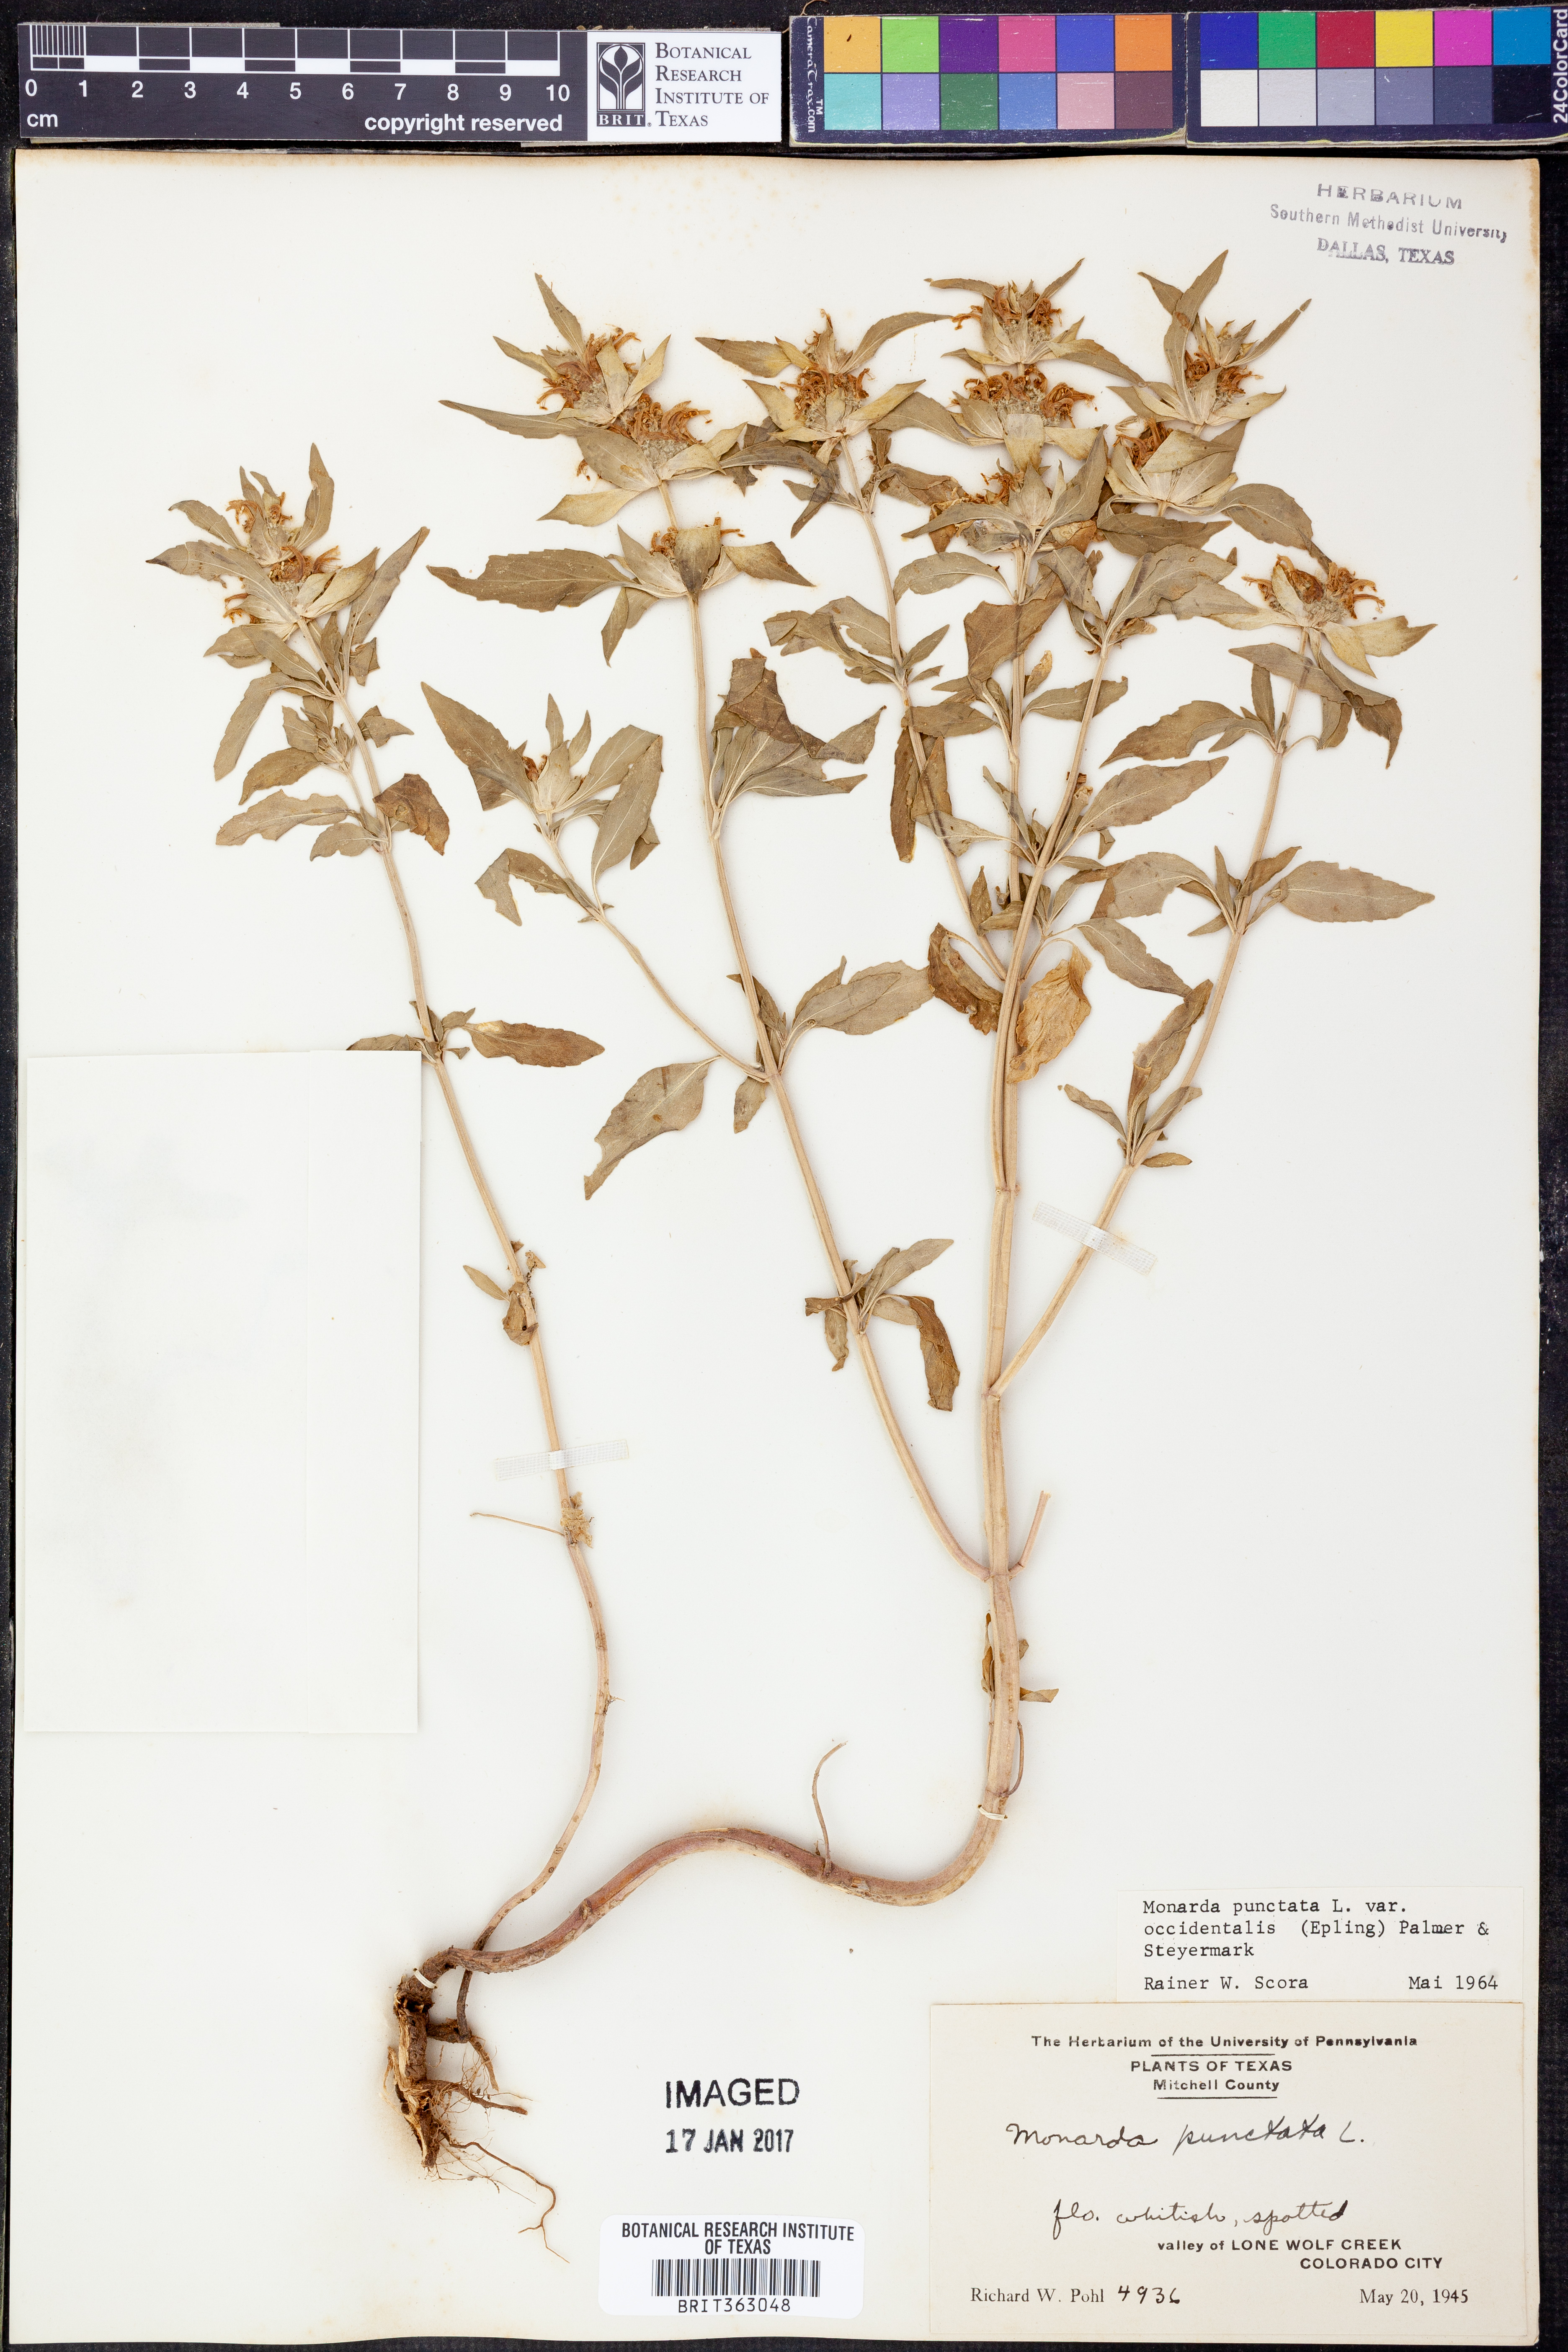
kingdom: Plantae
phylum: Tracheophyta
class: Magnoliopsida
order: Lamiales
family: Lamiaceae
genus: Monarda
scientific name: Monarda punctata
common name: Dotted monarda
